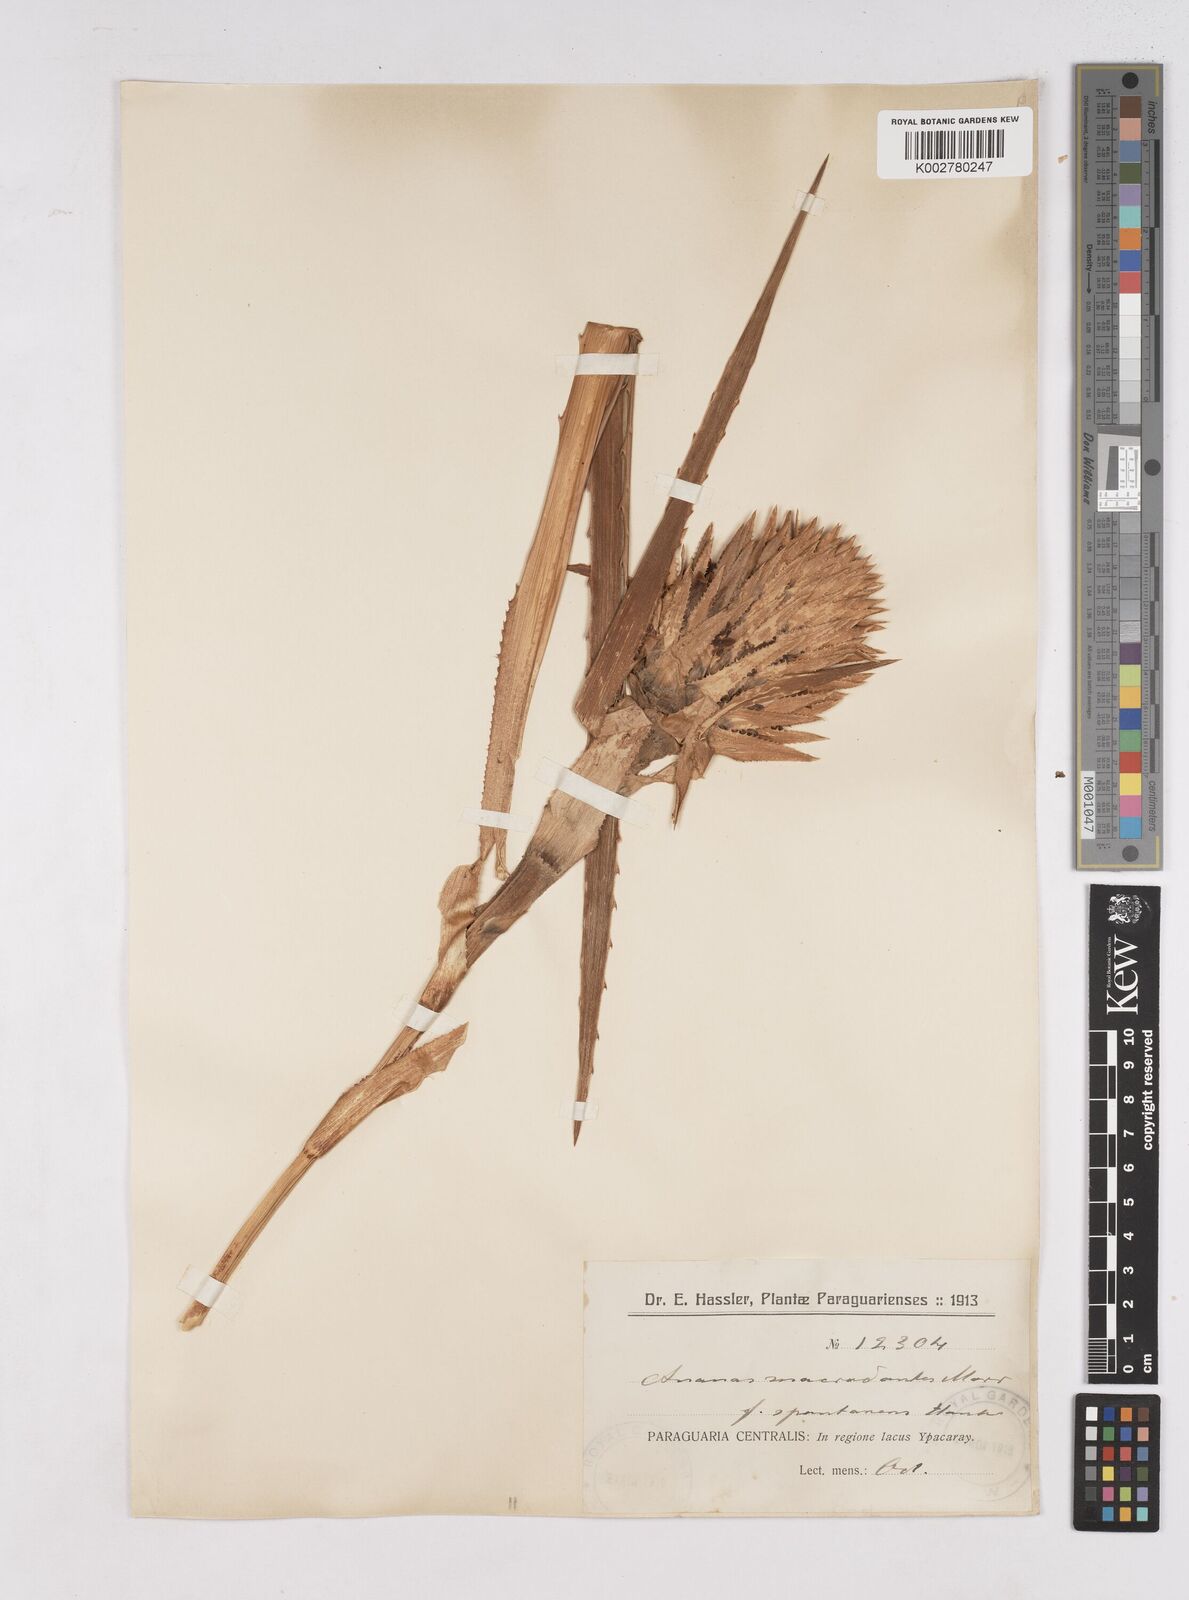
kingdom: Plantae
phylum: Tracheophyta
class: Liliopsida
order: Poales
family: Bromeliaceae
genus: Ananas
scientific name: Ananas comosus
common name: Pineapple
